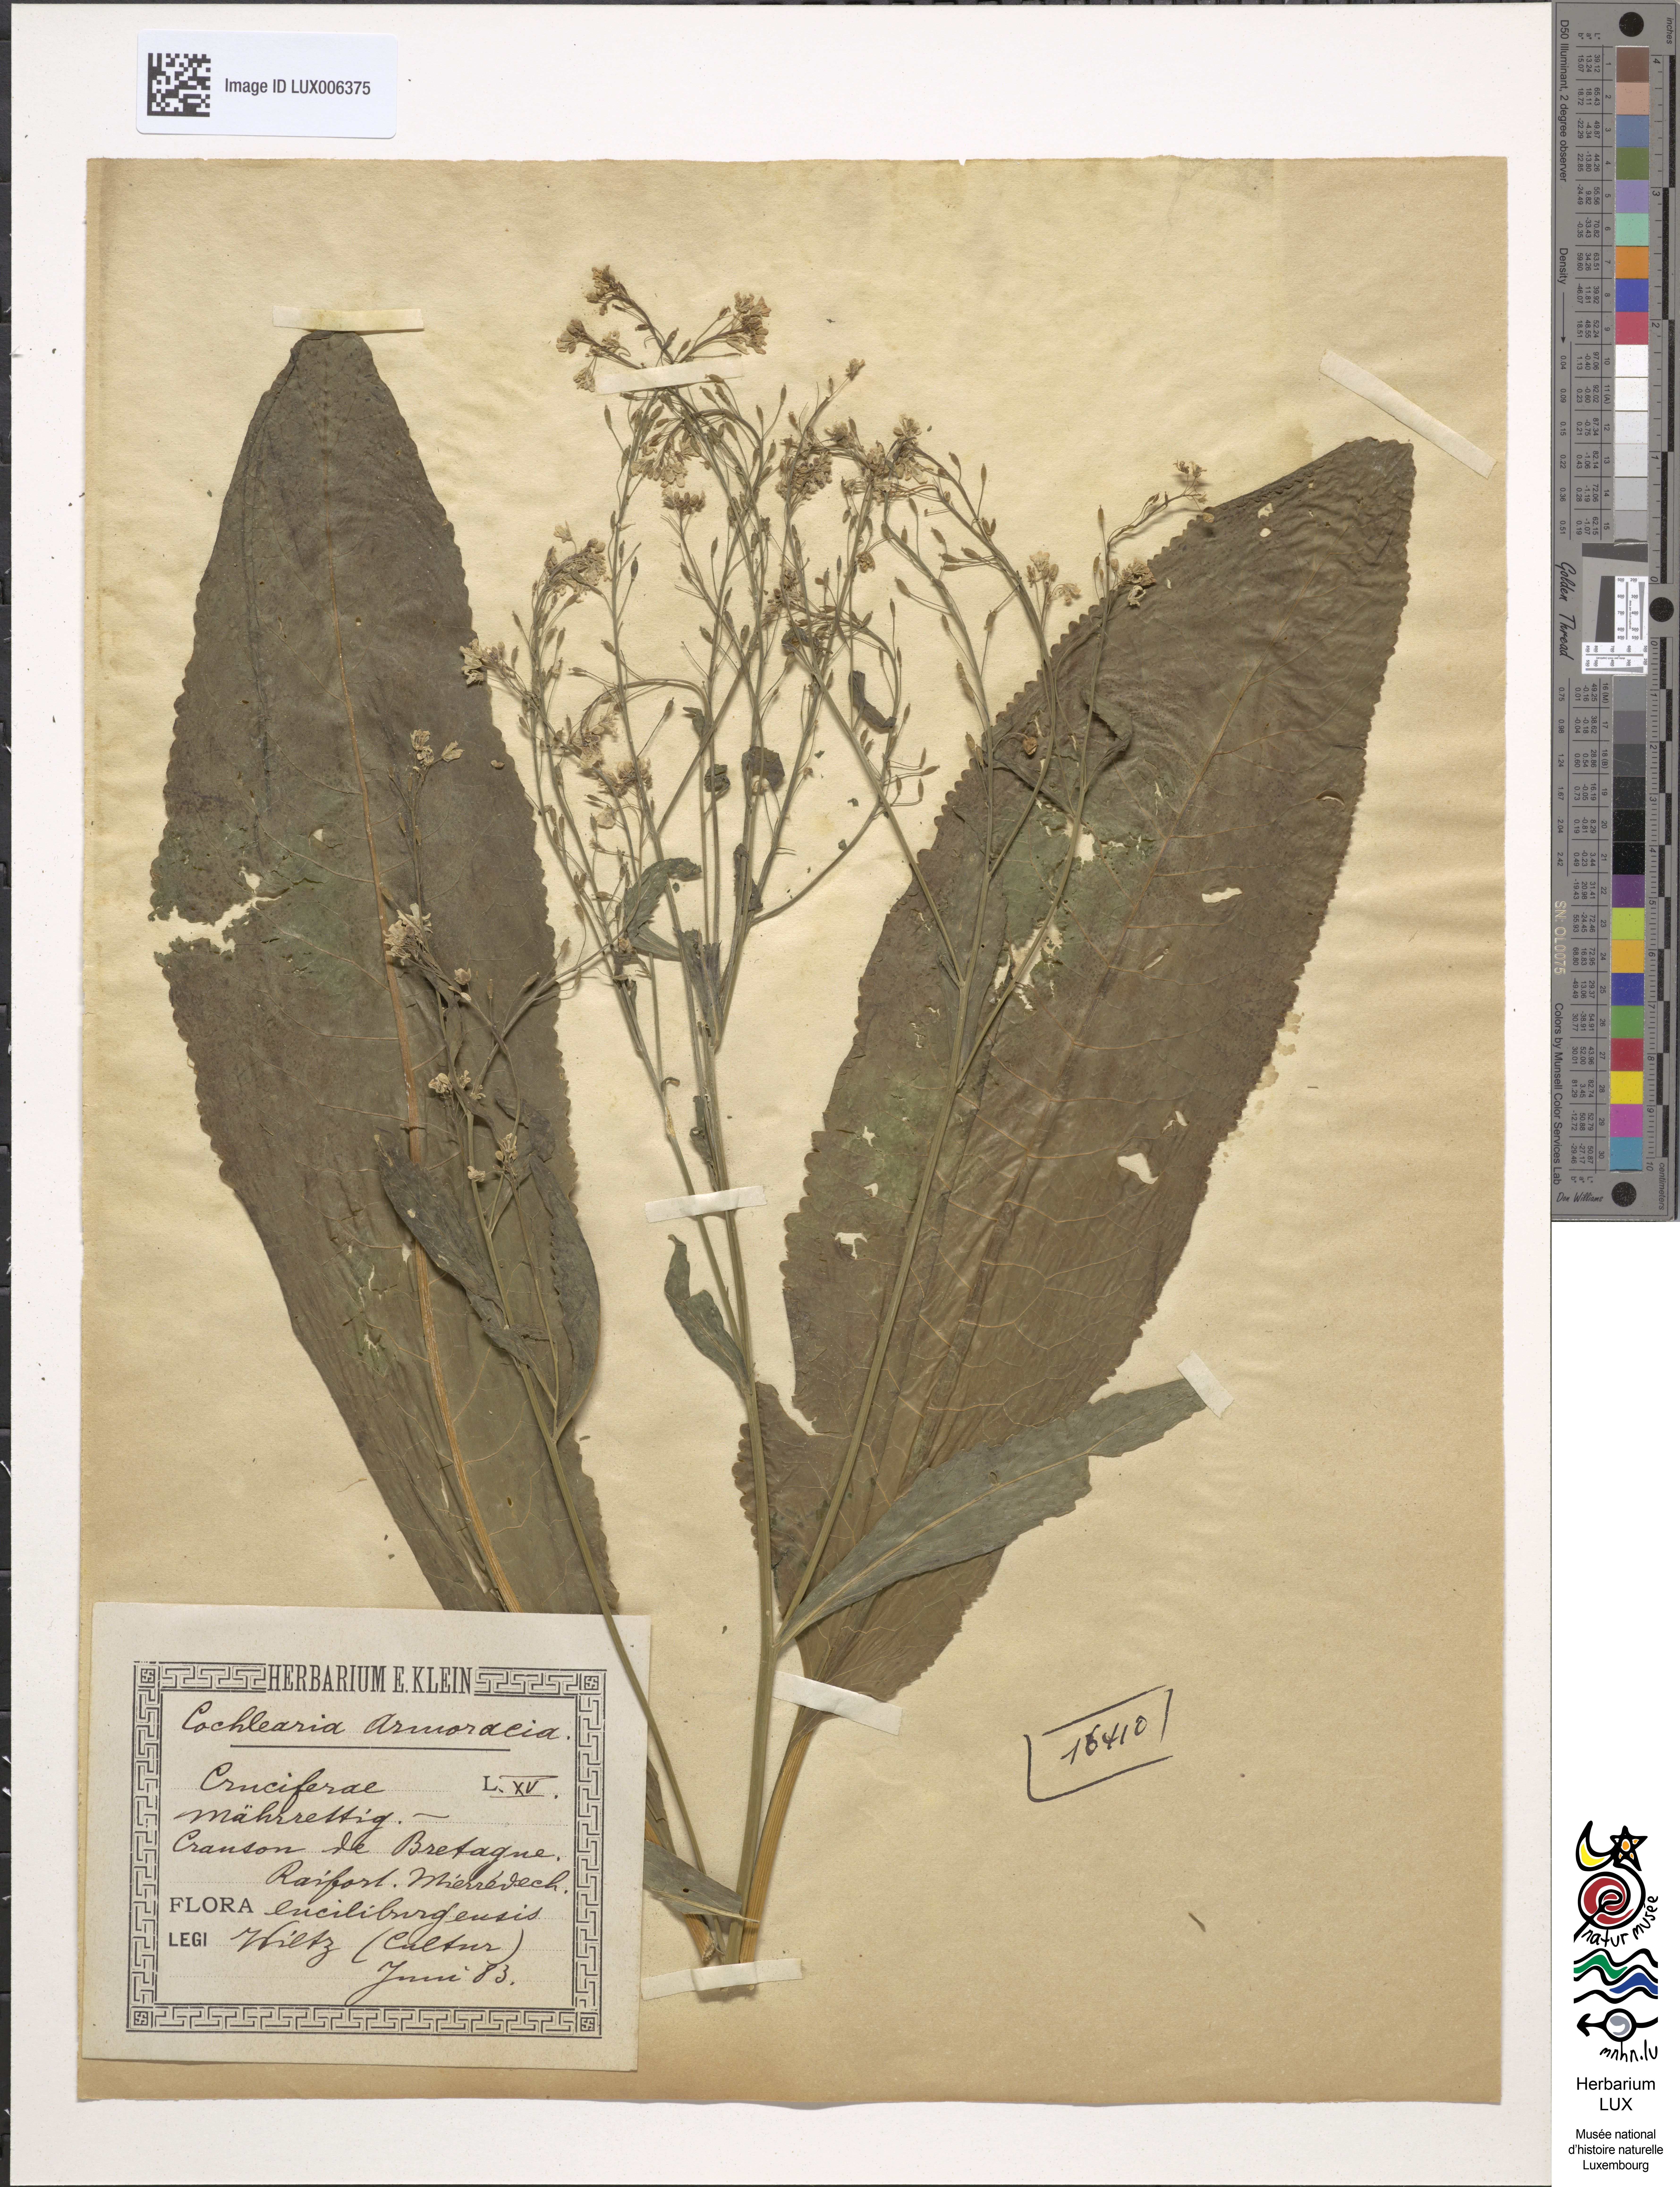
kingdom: Plantae
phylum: Tracheophyta
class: Magnoliopsida
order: Brassicales
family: Brassicaceae
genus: Armoracia
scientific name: Armoracia rusticana
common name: Horseradish
